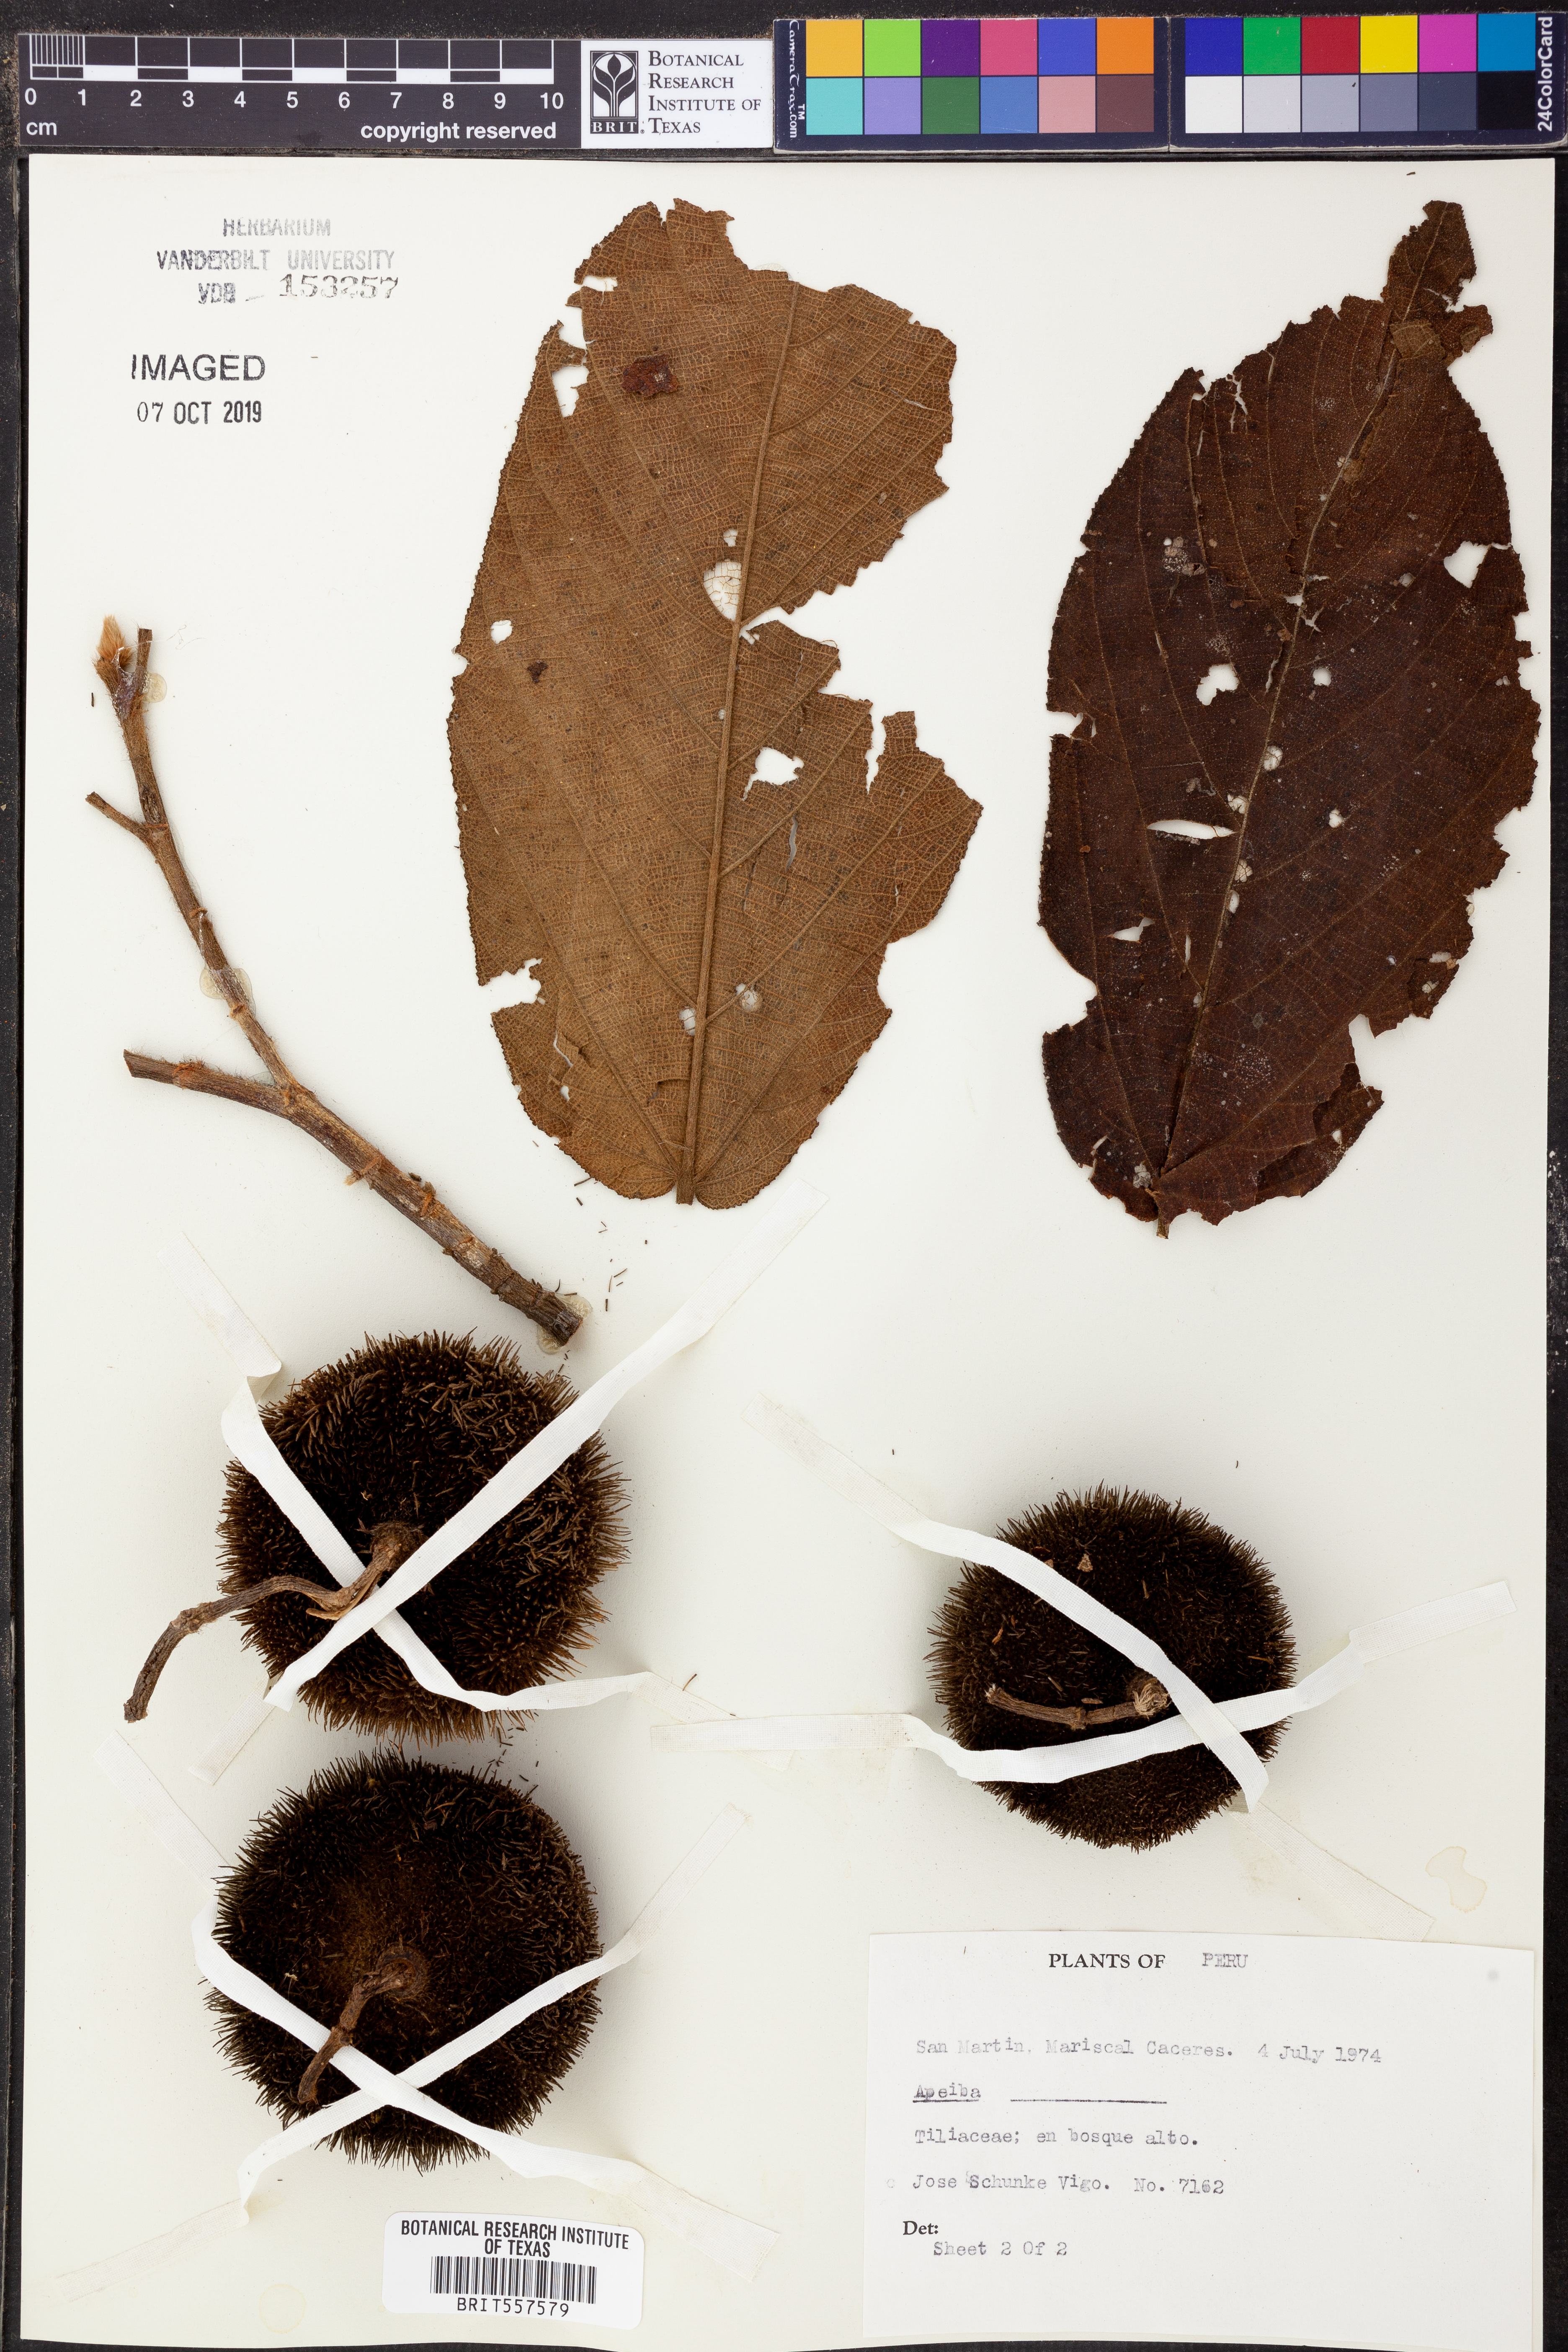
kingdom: Plantae
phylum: Tracheophyta
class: Magnoliopsida
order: Malvales
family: Malvaceae
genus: Apeiba
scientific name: Apeiba
